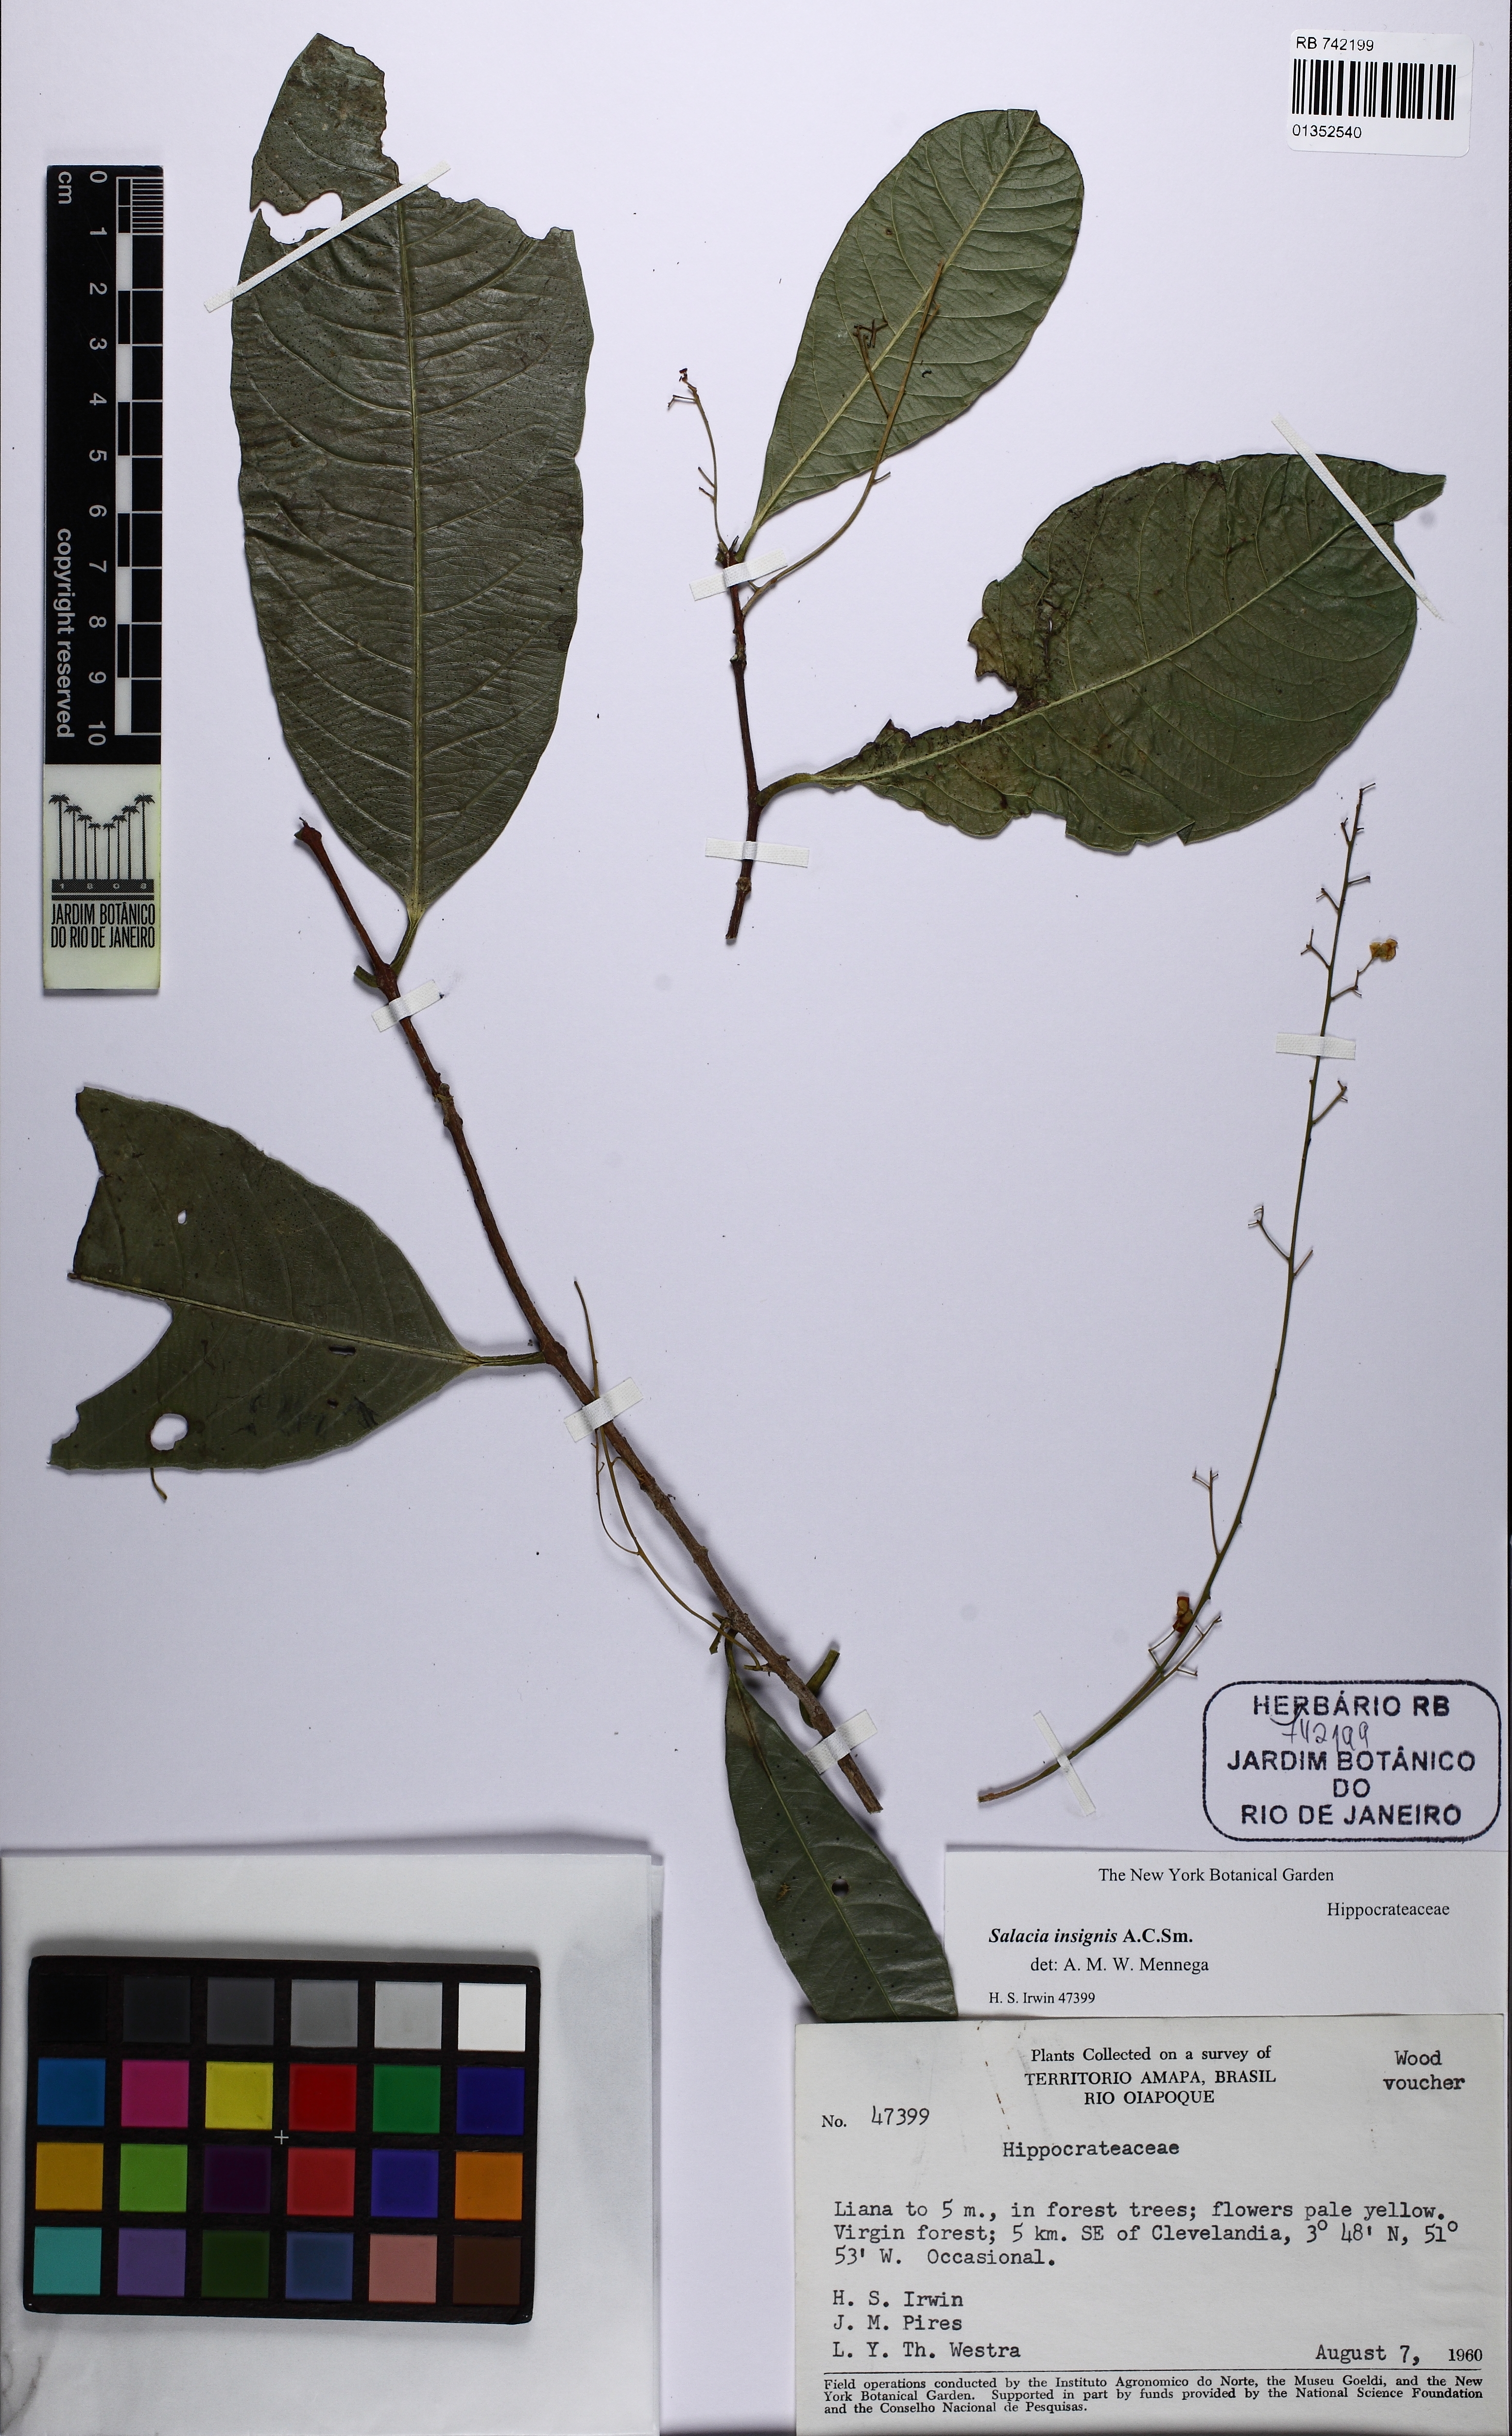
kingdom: Plantae
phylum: Tracheophyta
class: Magnoliopsida
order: Celastrales
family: Celastraceae
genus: Salacia
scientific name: Salacia insignis
